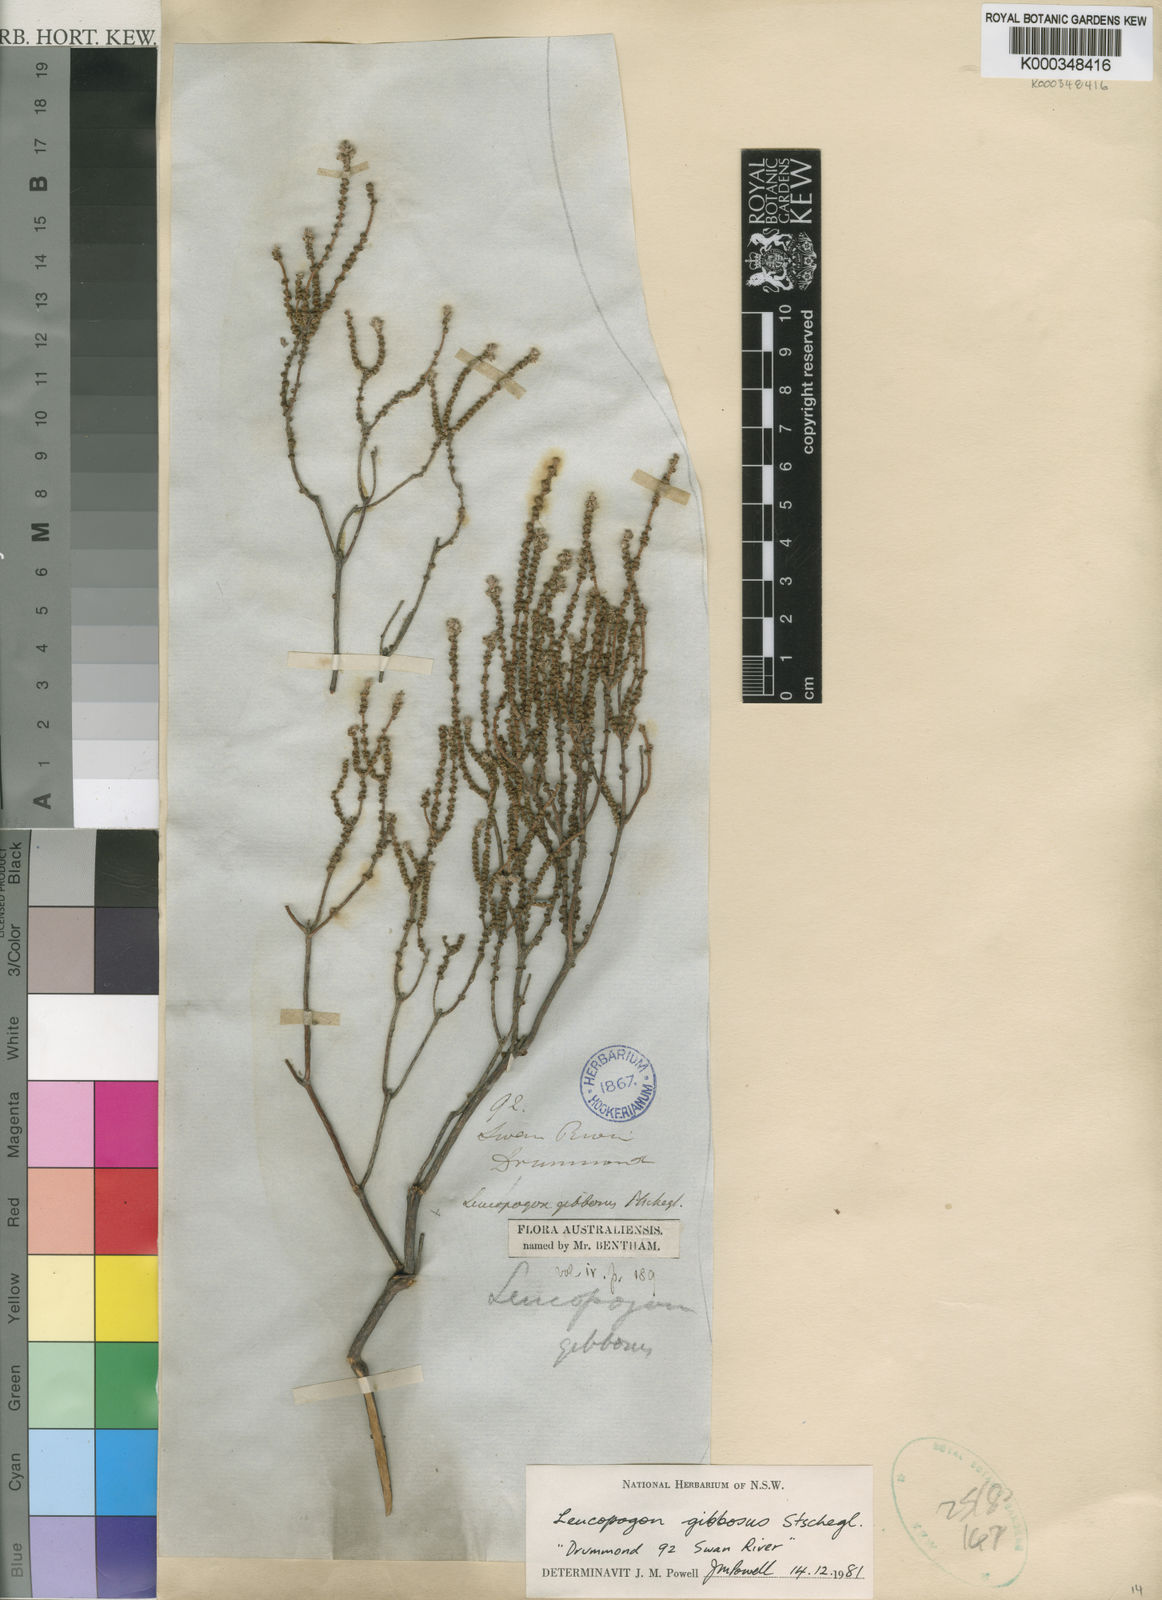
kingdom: Plantae
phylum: Tracheophyta
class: Magnoliopsida
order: Ericales
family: Ericaceae
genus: Leucopogon
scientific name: Leucopogon gibbosus
